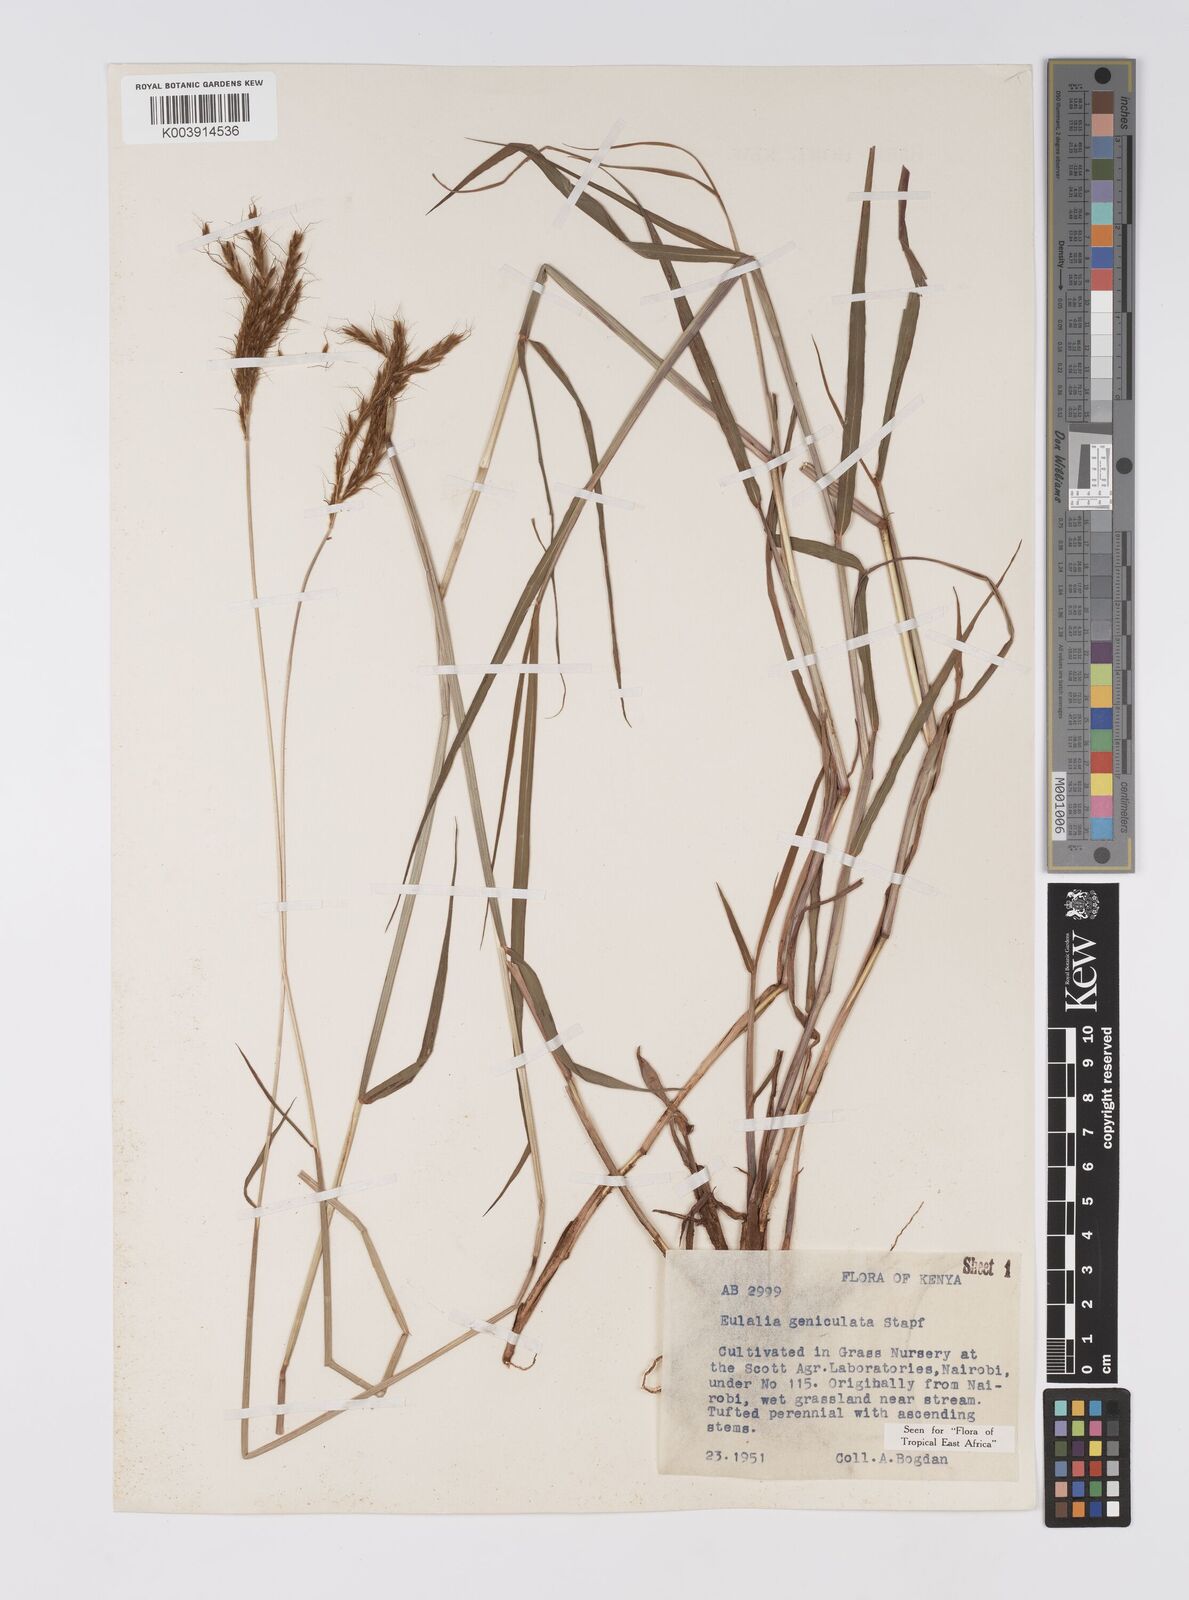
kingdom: Plantae
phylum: Tracheophyta
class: Liliopsida
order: Poales
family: Poaceae
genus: Eulalia
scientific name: Eulalia aurea
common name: Silky browntop
